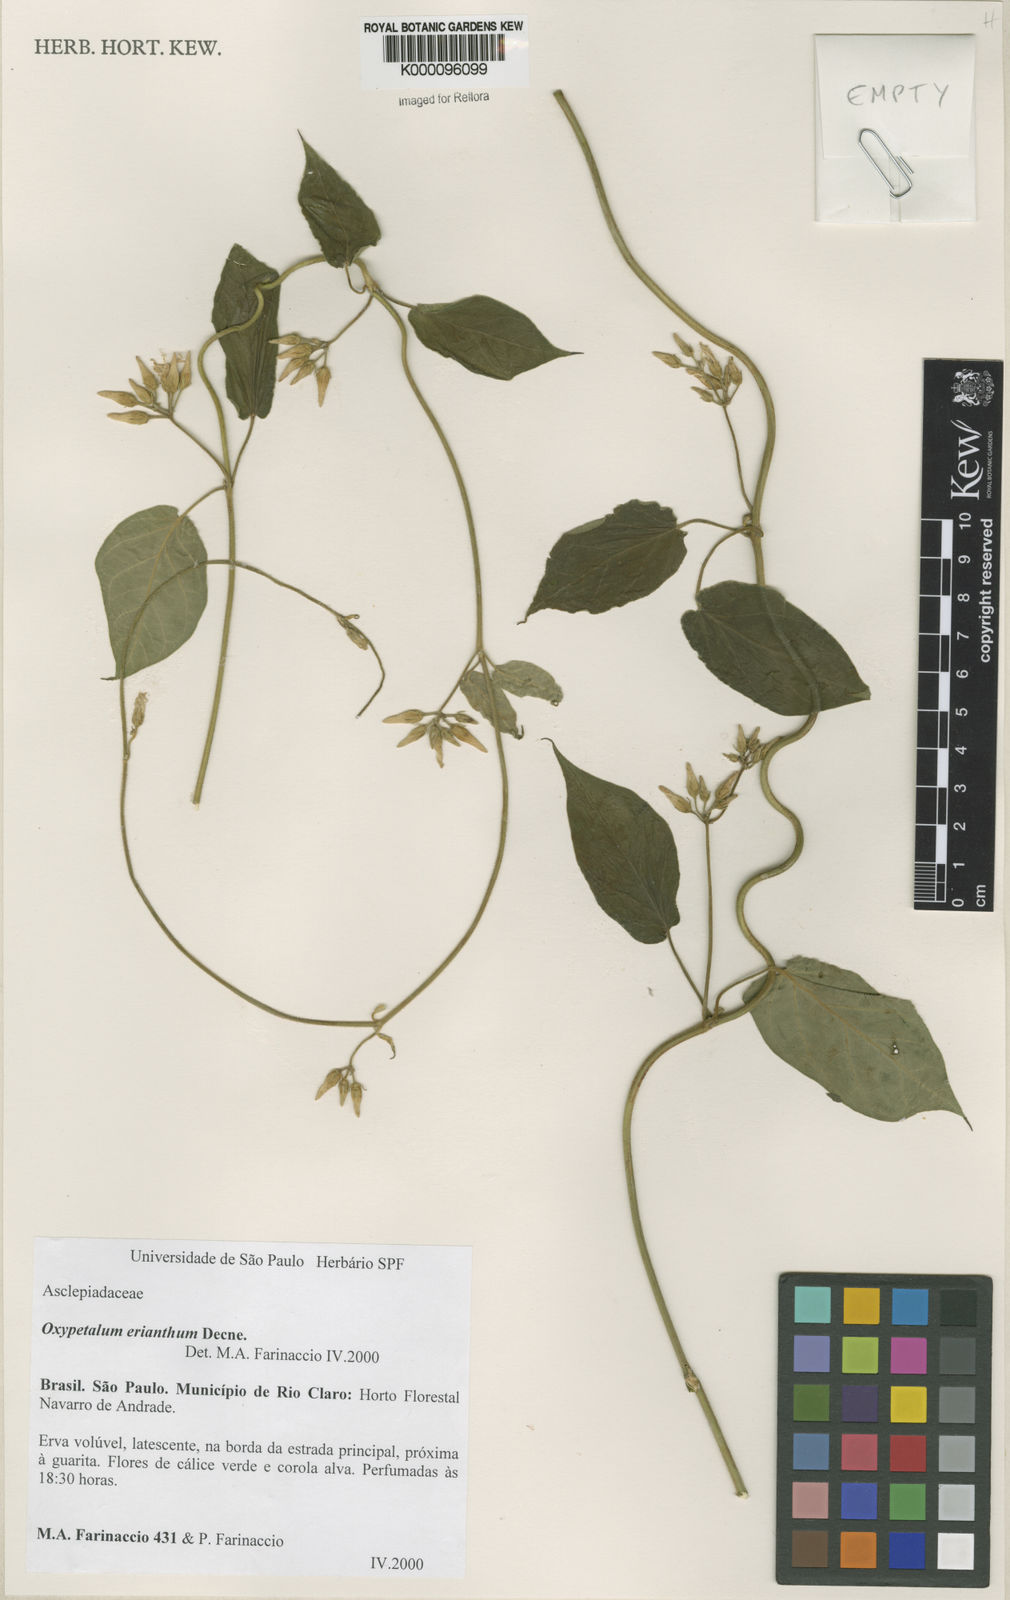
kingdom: Plantae
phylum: Tracheophyta
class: Magnoliopsida
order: Gentianales
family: Apocynaceae
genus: Oxypetalum
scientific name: Oxypetalum erianthum
